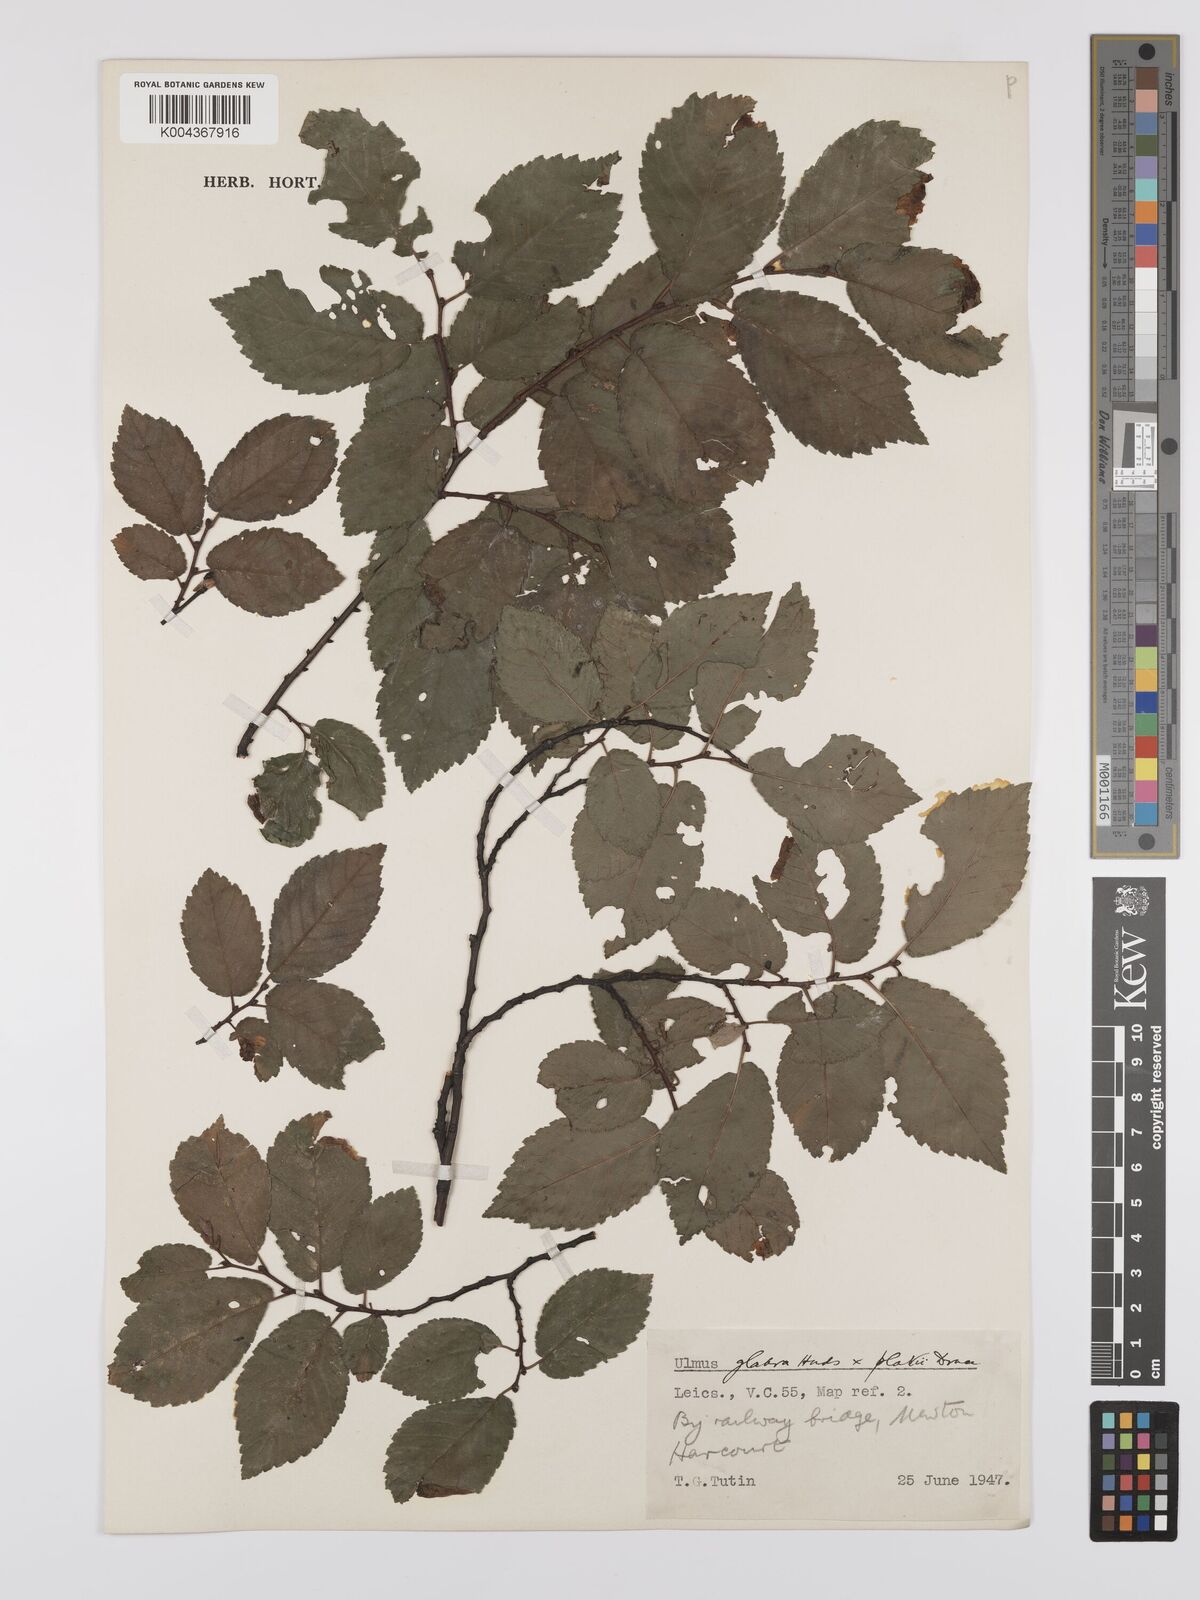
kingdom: Plantae
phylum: Tracheophyta
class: Magnoliopsida
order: Rosales
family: Ulmaceae
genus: Ulmus
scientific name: Ulmus
